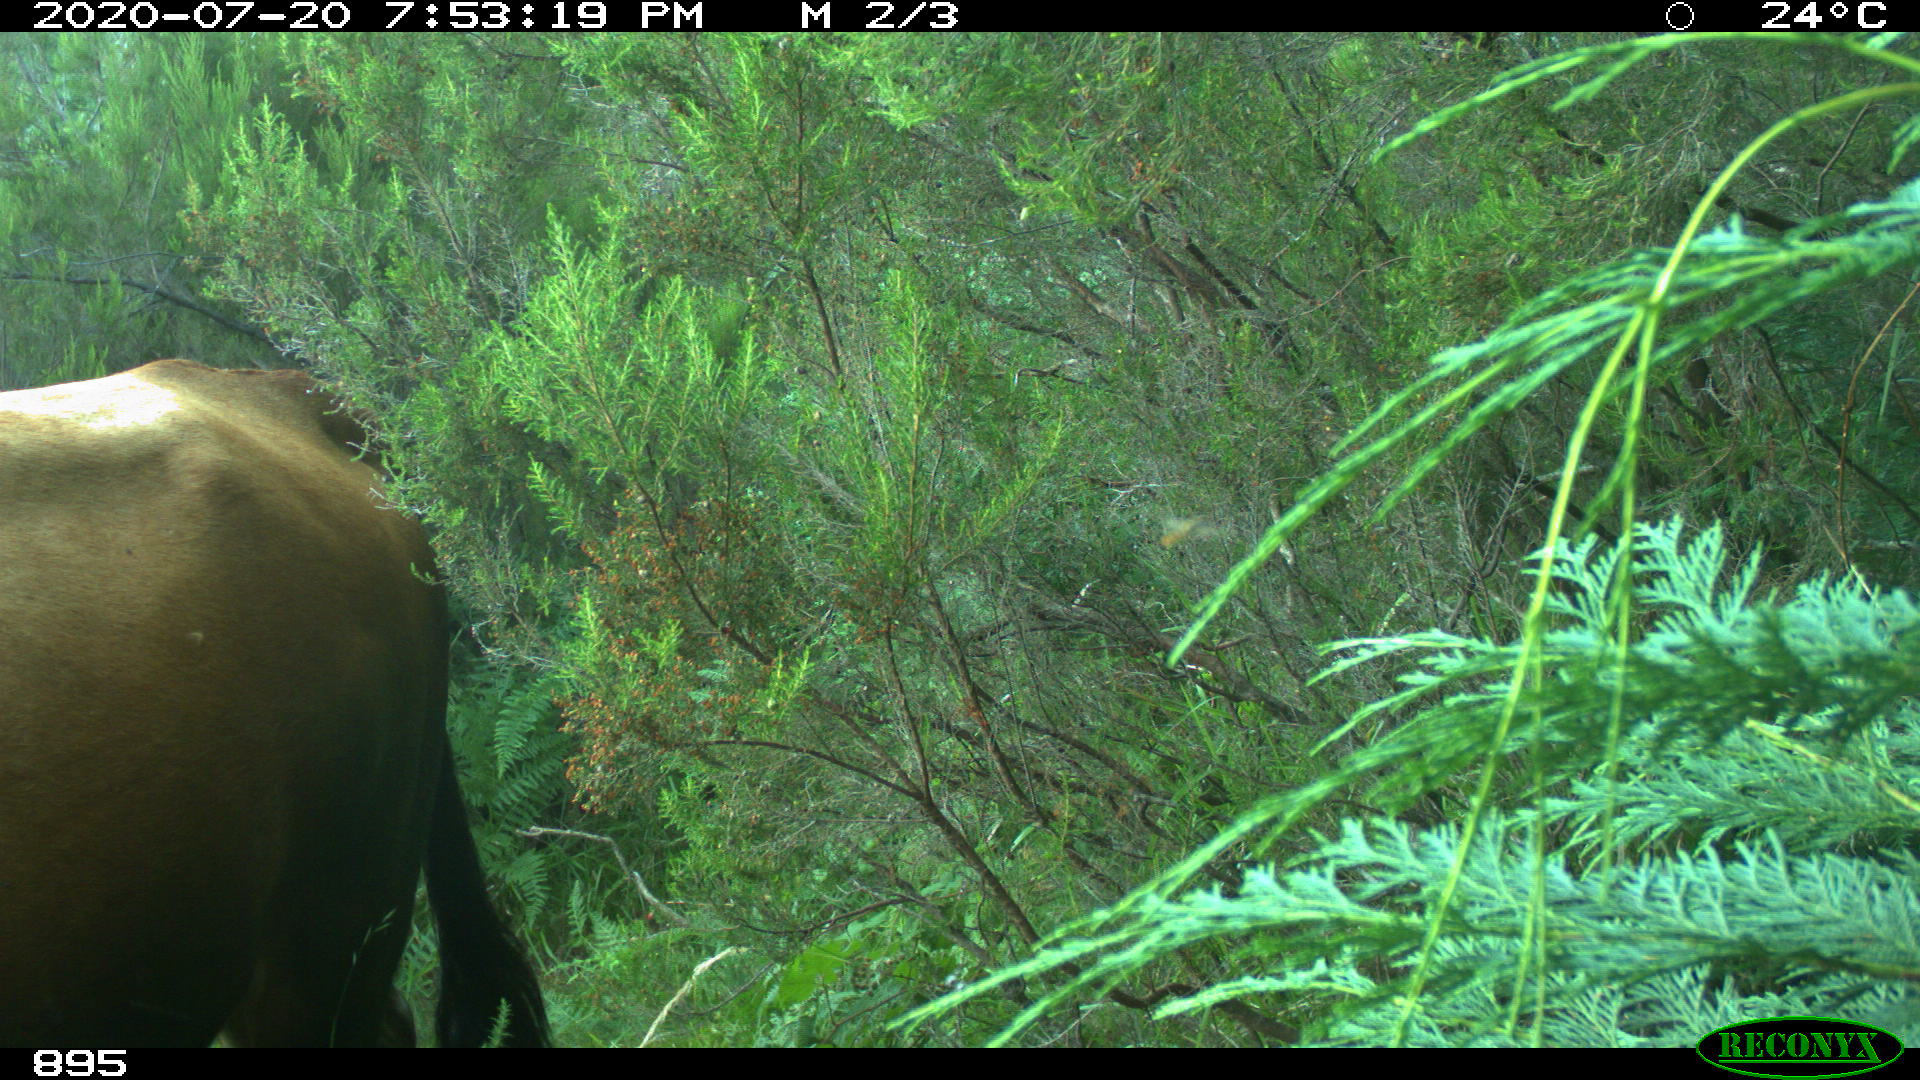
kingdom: Animalia
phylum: Chordata
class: Mammalia
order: Artiodactyla
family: Bovidae
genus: Bos
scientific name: Bos taurus
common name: Domesticated cattle
